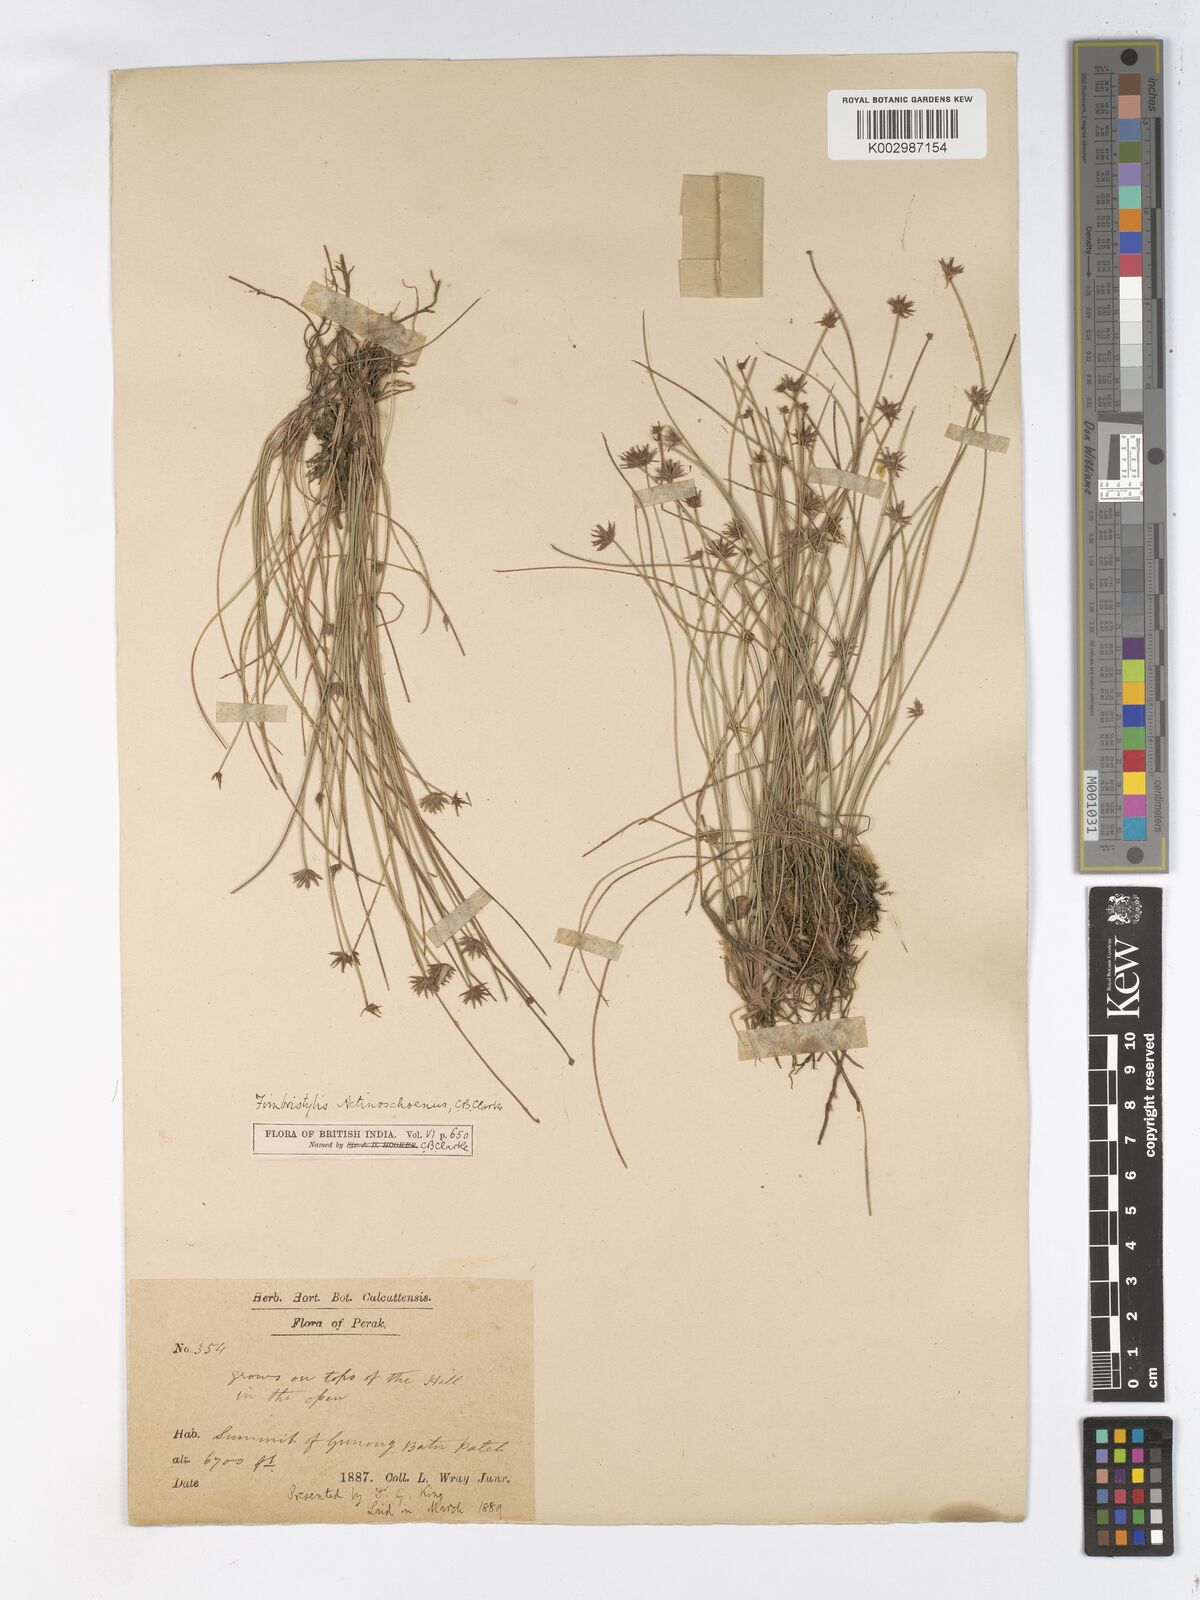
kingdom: Plantae
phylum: Tracheophyta
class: Liliopsida
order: Poales
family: Cyperaceae
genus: Actinoschoenus
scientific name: Actinoschoenus
